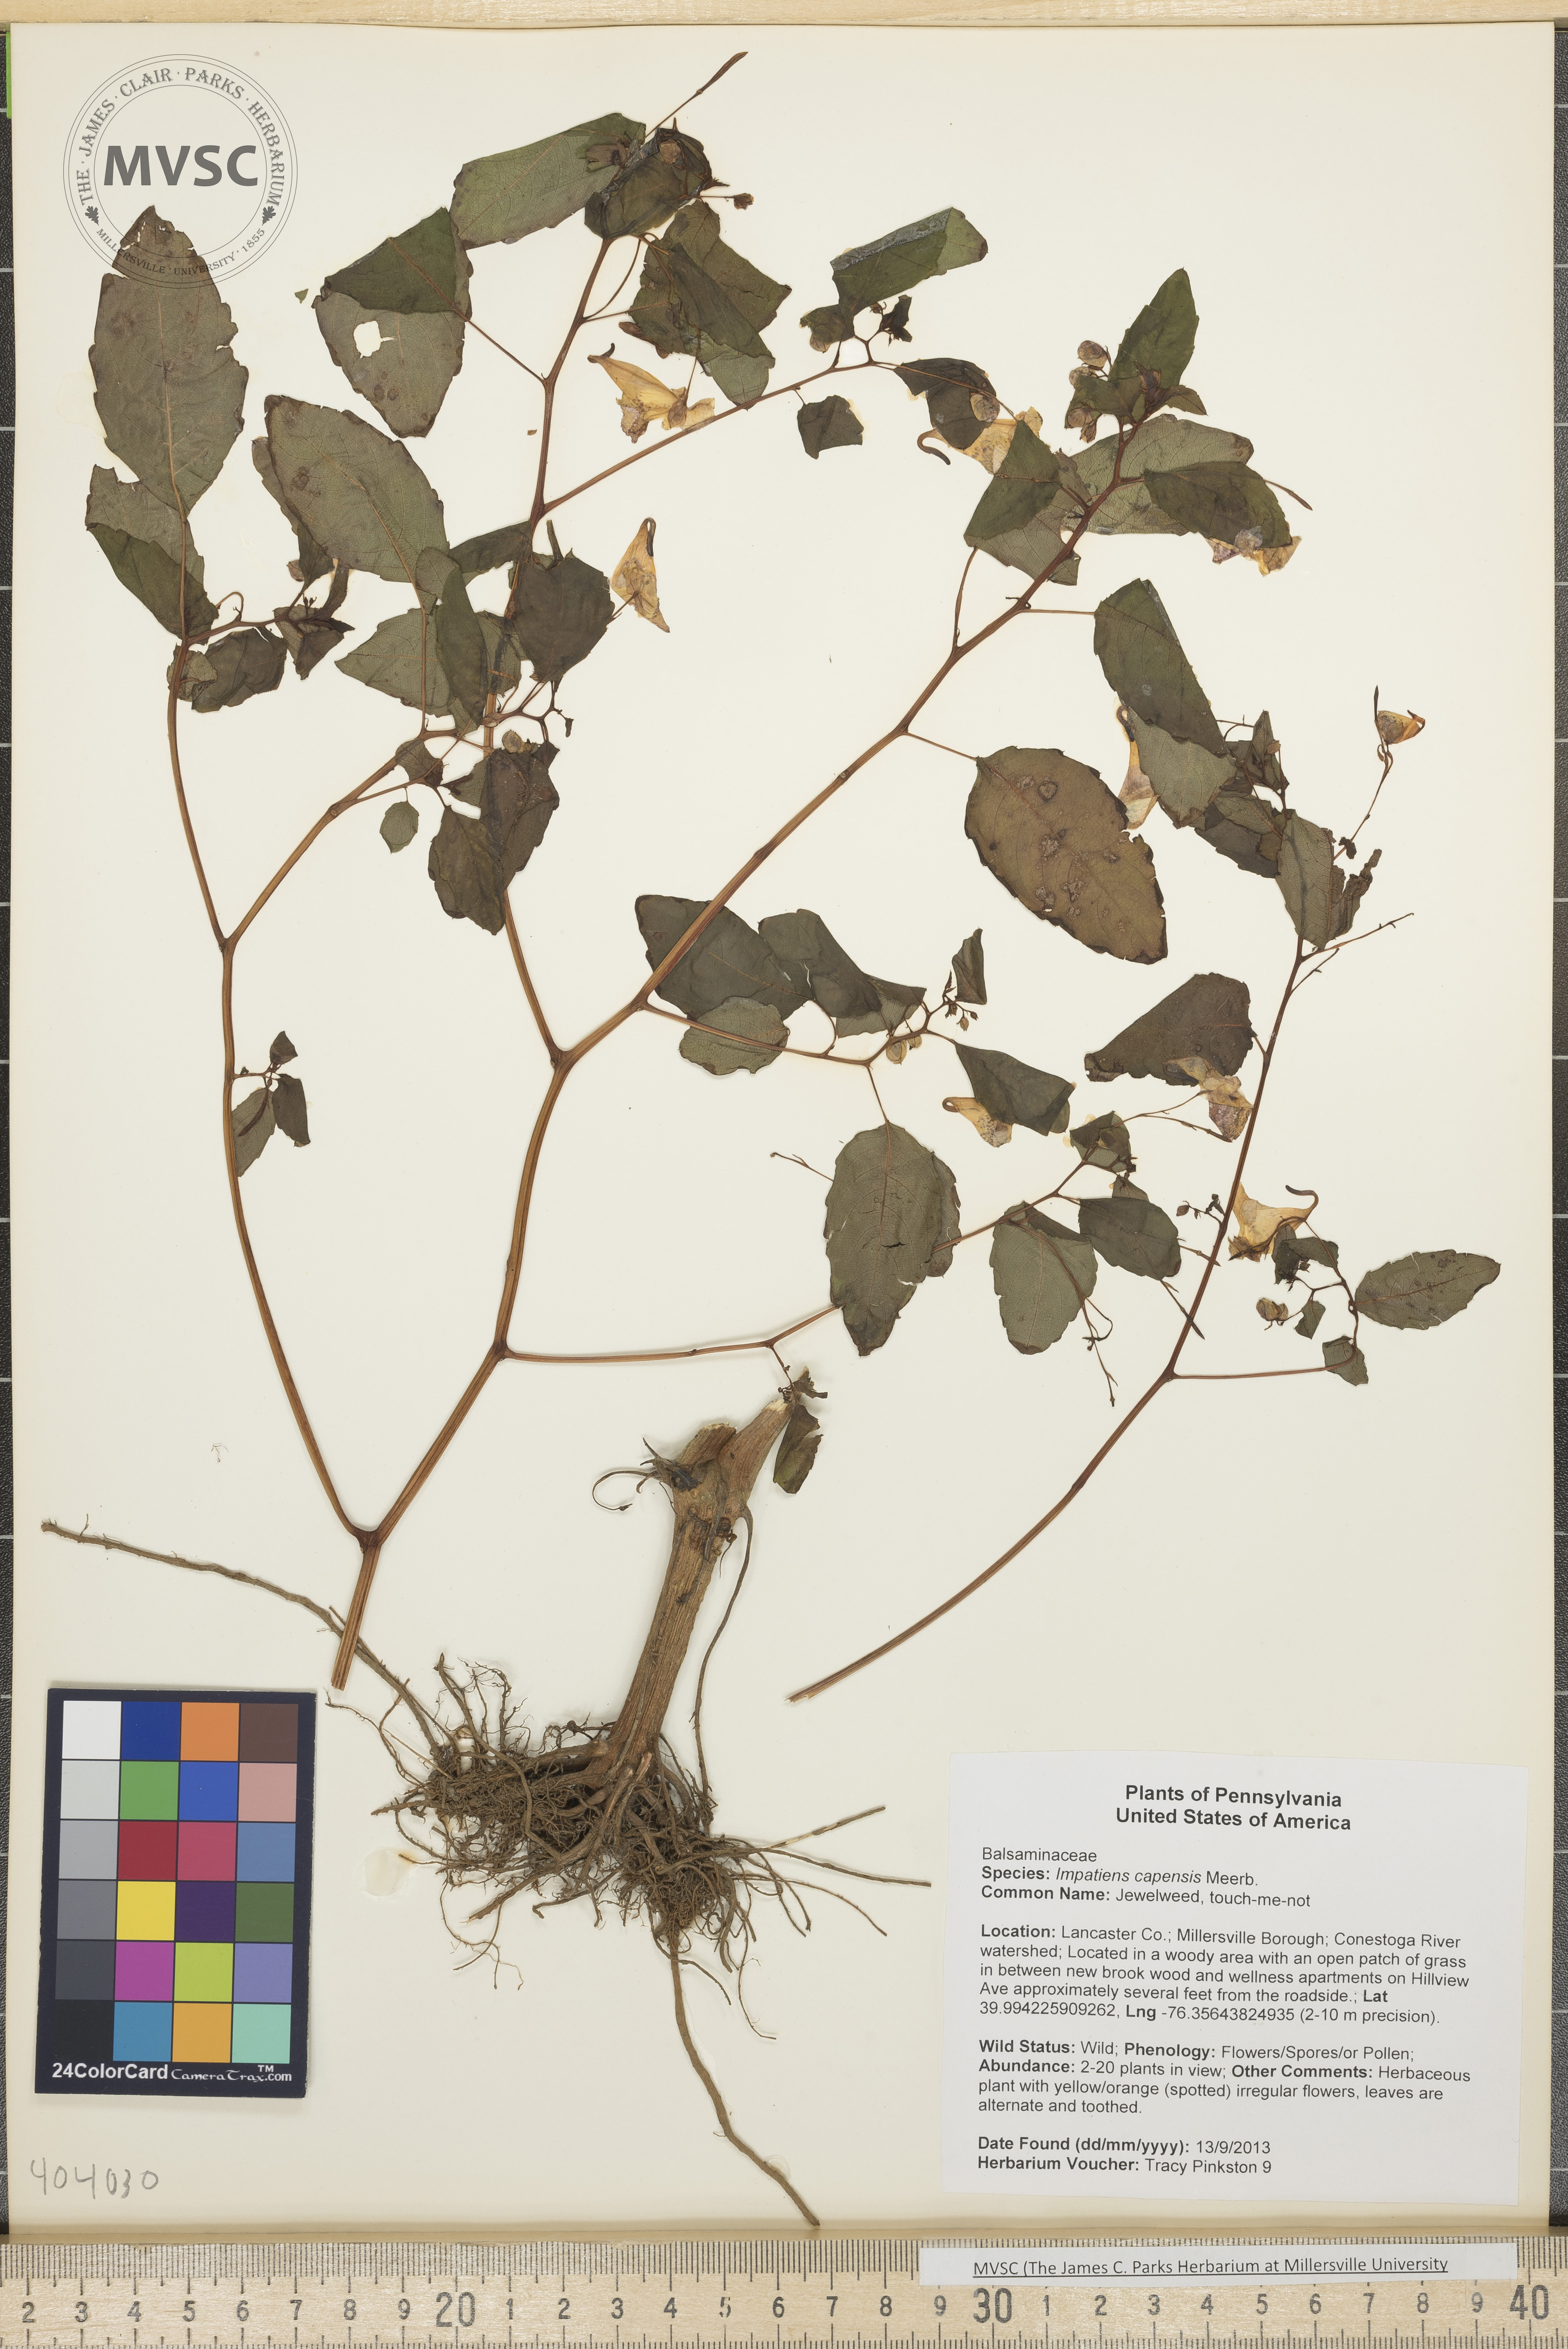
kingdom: Plantae
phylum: Tracheophyta
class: Magnoliopsida
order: Ericales
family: Balsaminaceae
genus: Impatiens
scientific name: Impatiens capensis
